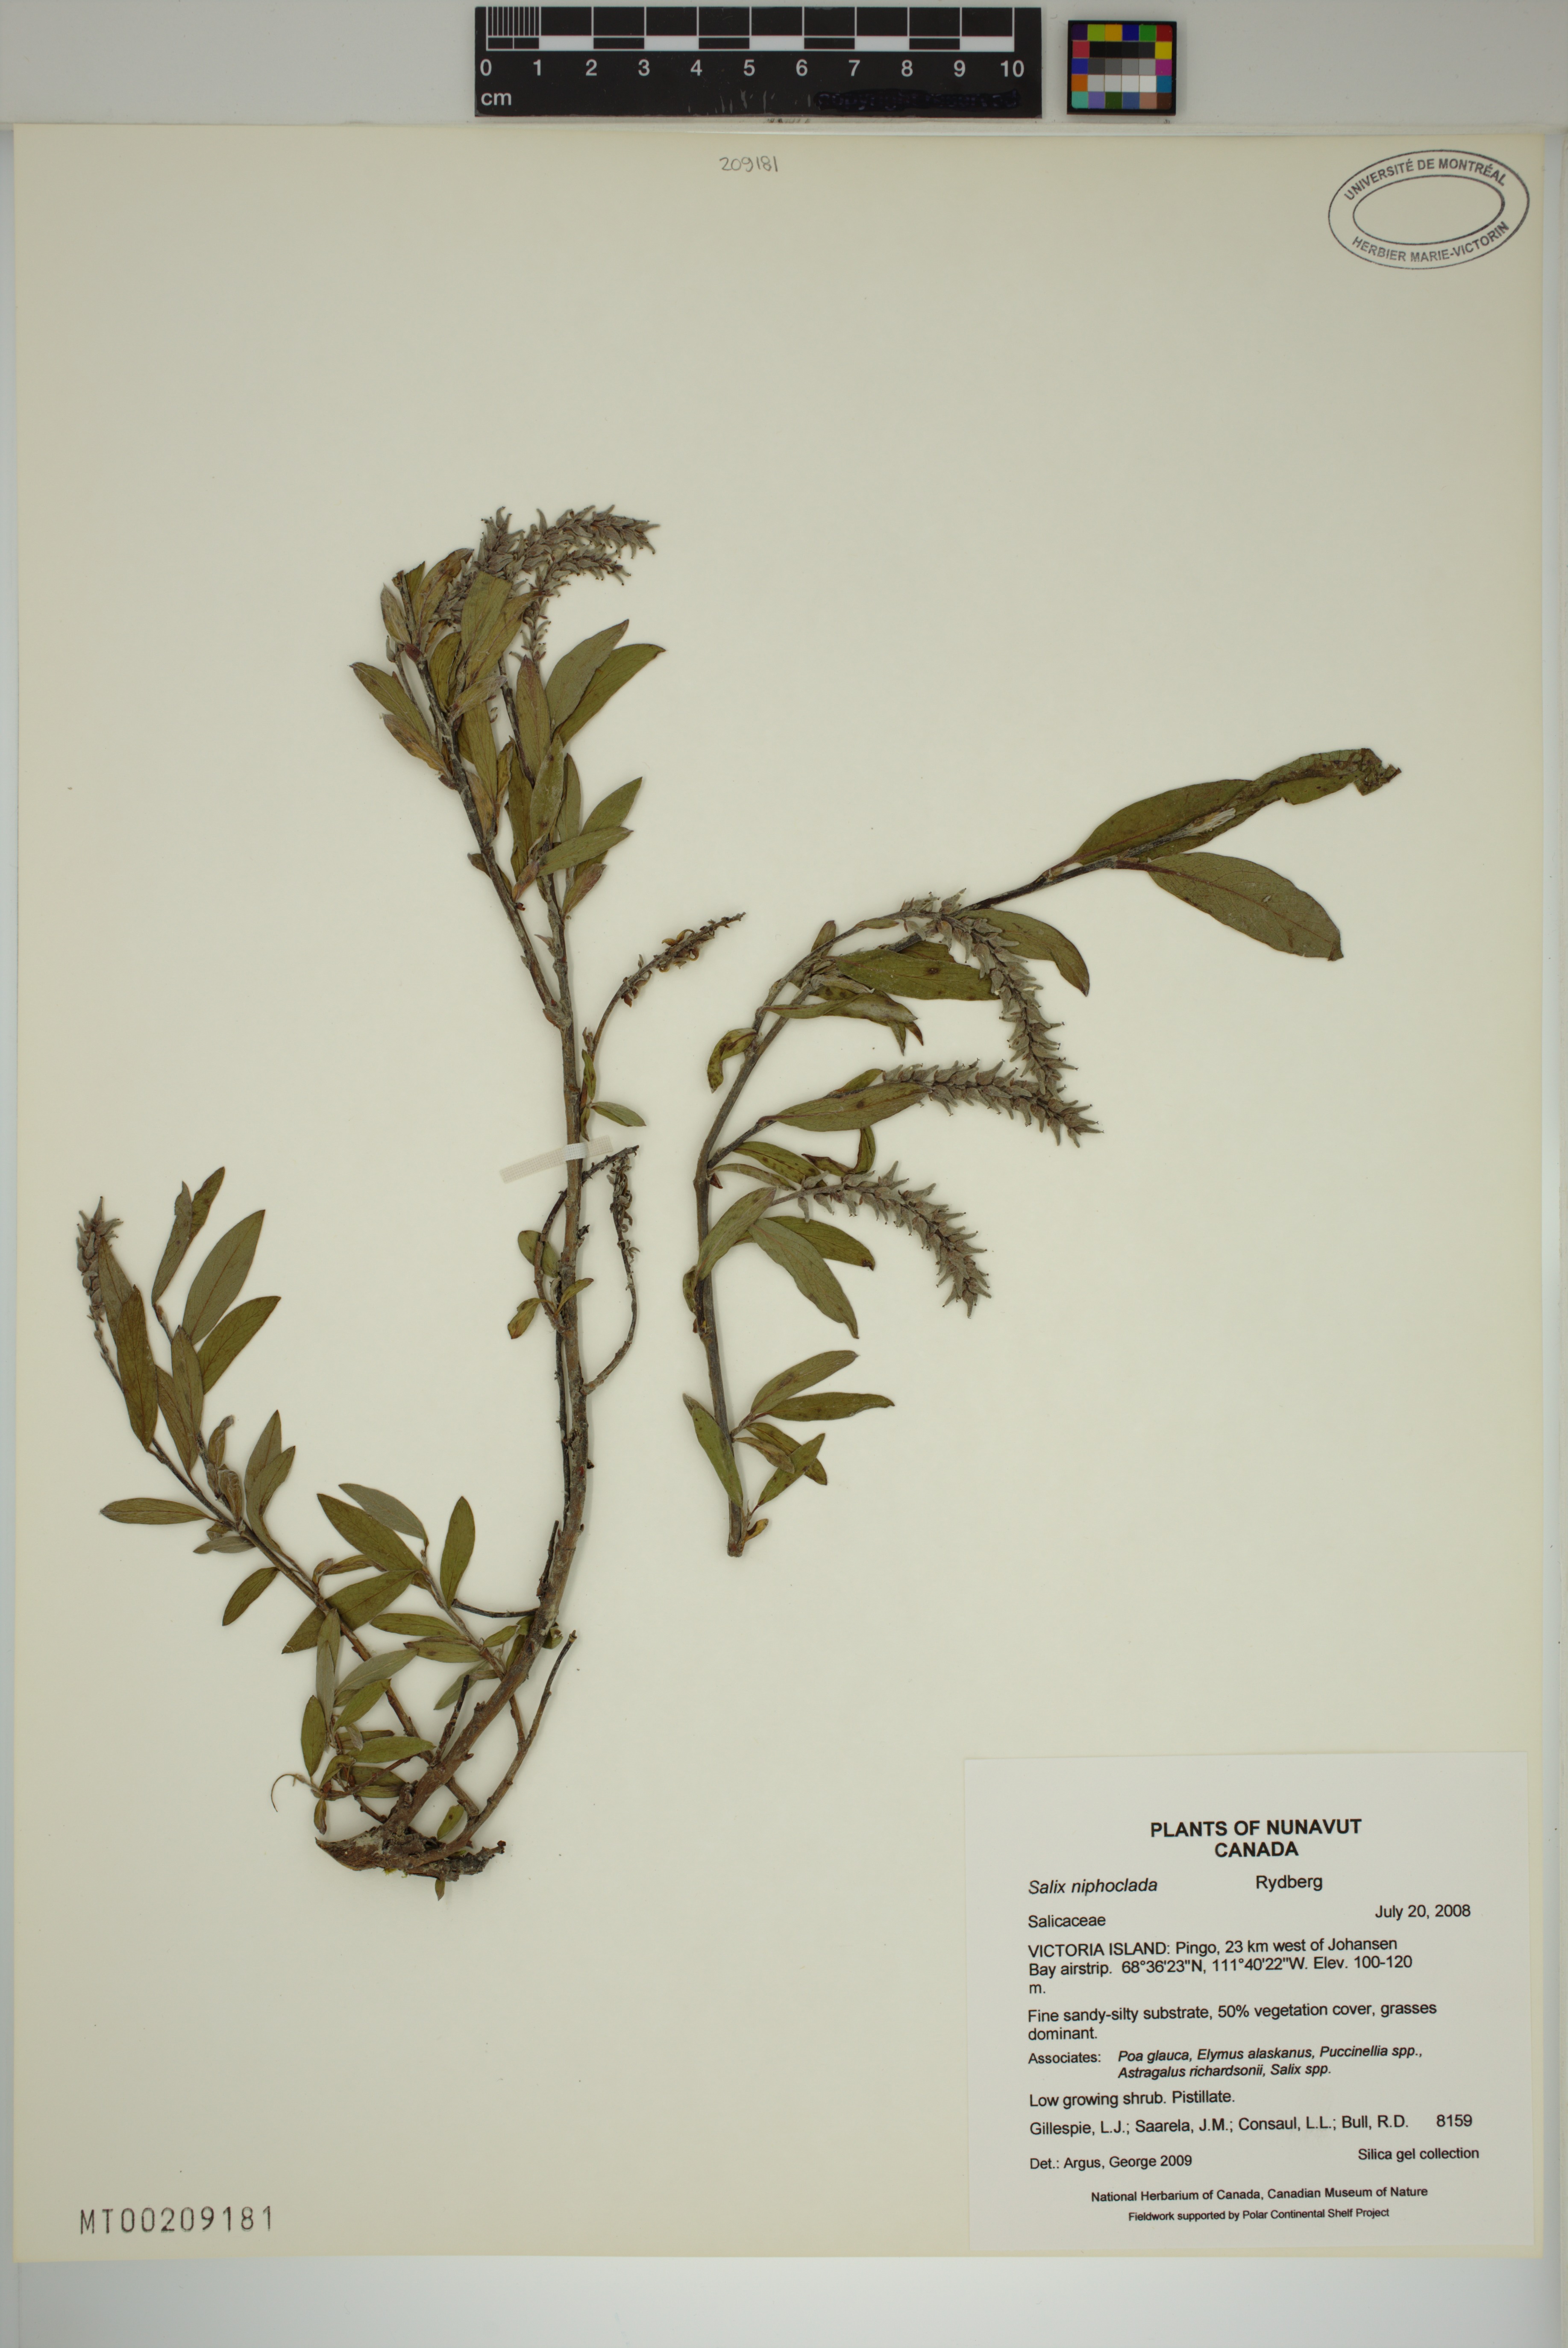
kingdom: Plantae
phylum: Tracheophyta
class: Magnoliopsida
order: Malpighiales
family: Salicaceae
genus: Salix
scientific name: Salix niphoclada
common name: Barren-ground willow
